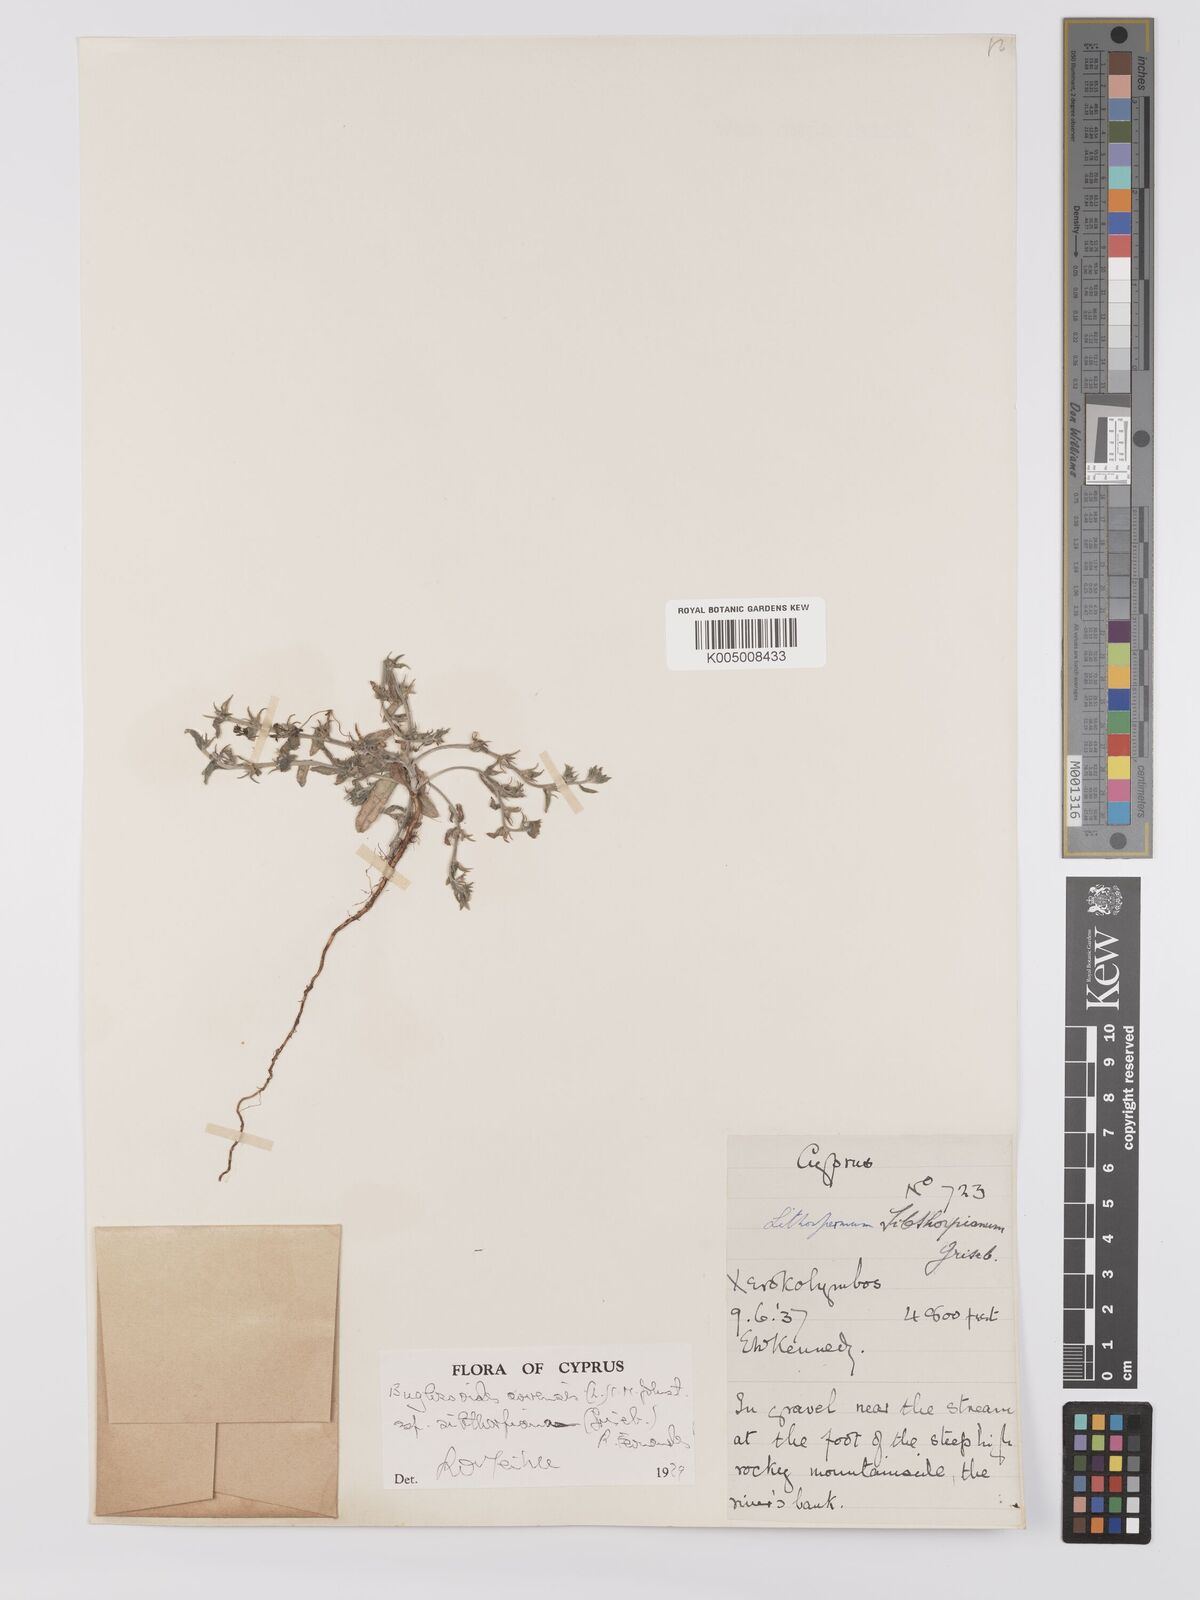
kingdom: Plantae
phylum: Tracheophyta
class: Magnoliopsida
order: Boraginales
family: Boraginaceae
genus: Buglossoides
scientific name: Buglossoides
